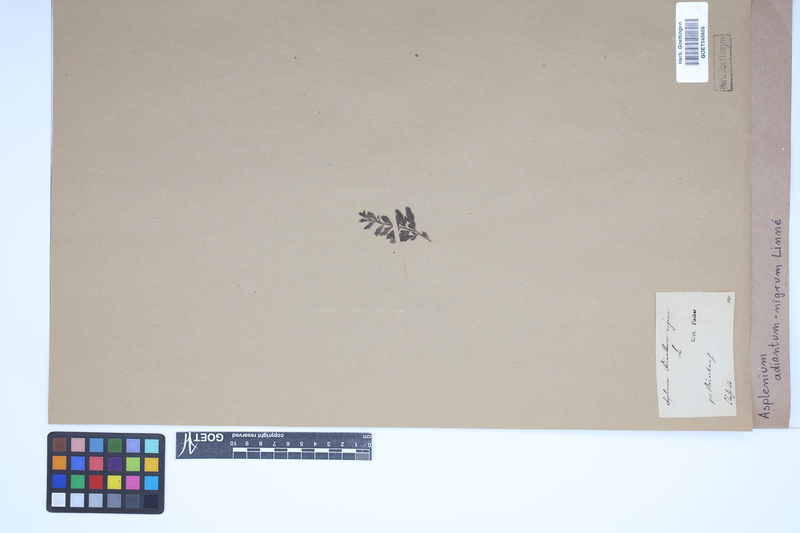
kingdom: Plantae
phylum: Tracheophyta
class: Polypodiopsida
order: Polypodiales
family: Aspleniaceae
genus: Asplenium
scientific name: Asplenium adiantum-nigrum
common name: Black spleenwort
